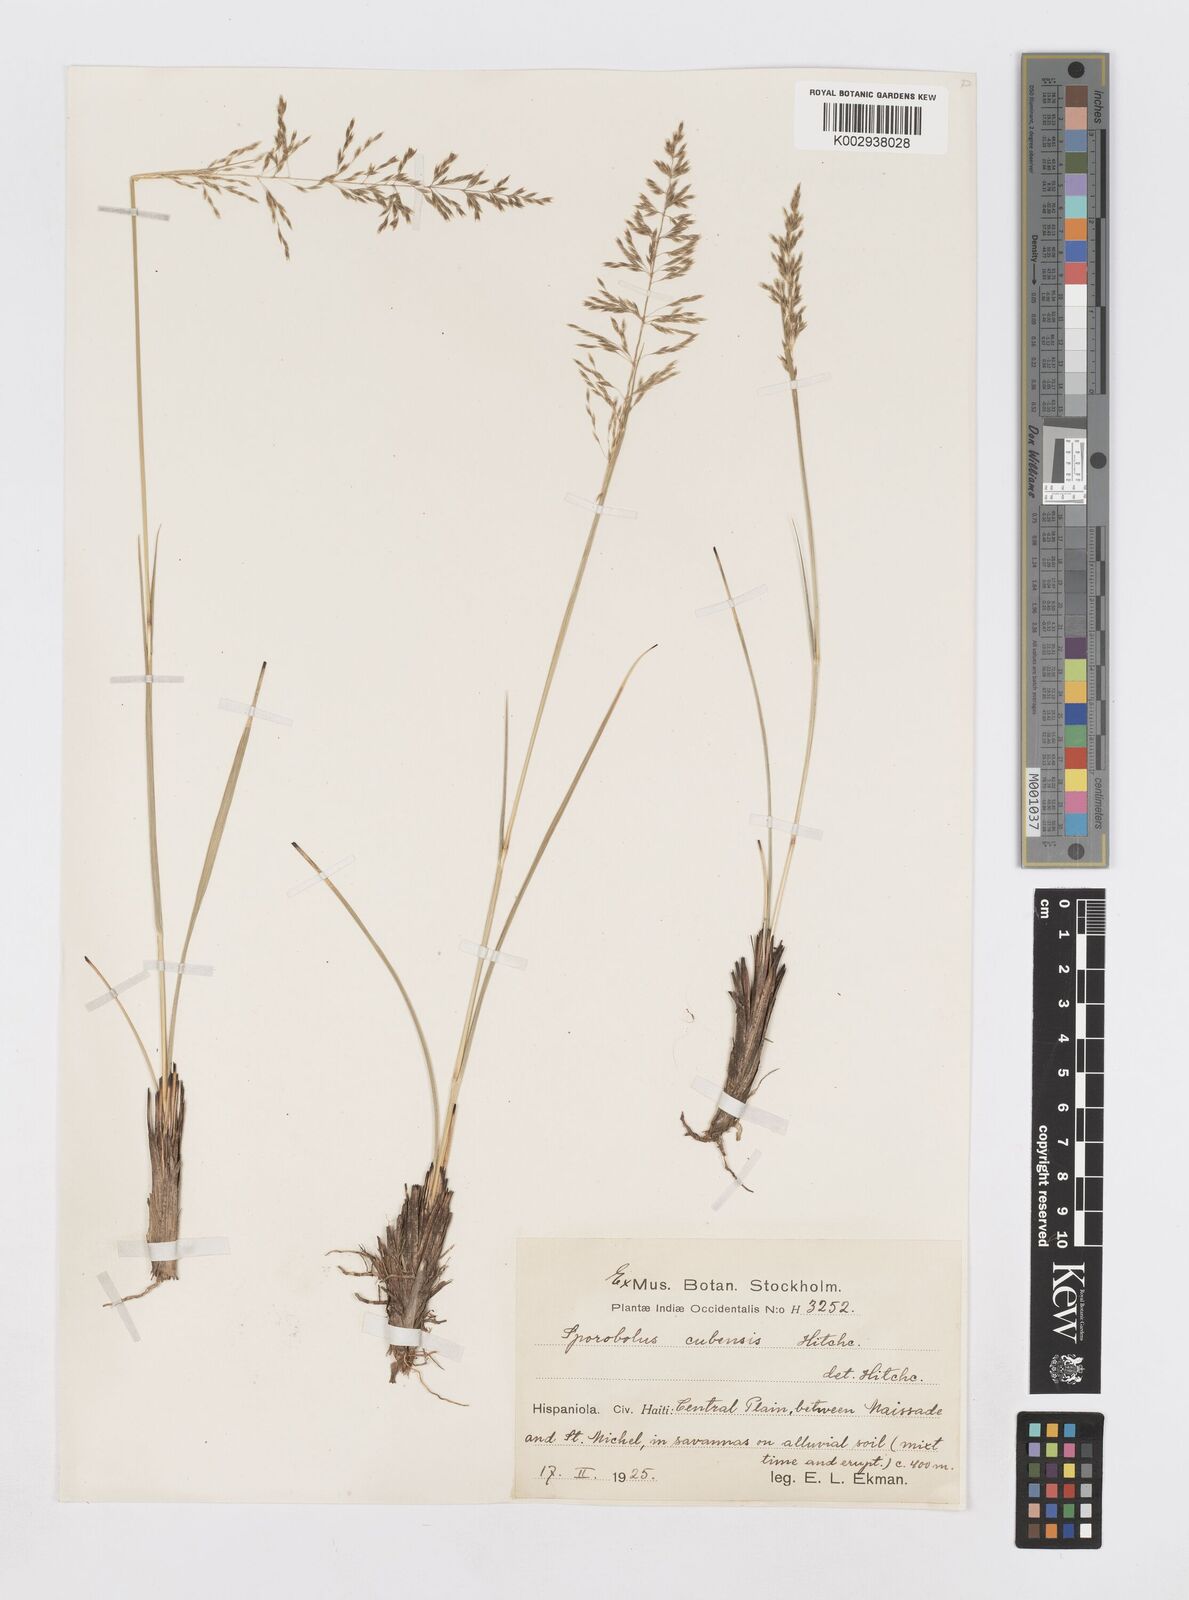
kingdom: Plantae
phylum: Tracheophyta
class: Liliopsida
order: Poales
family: Poaceae
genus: Sporobolus
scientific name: Sporobolus cubensis
